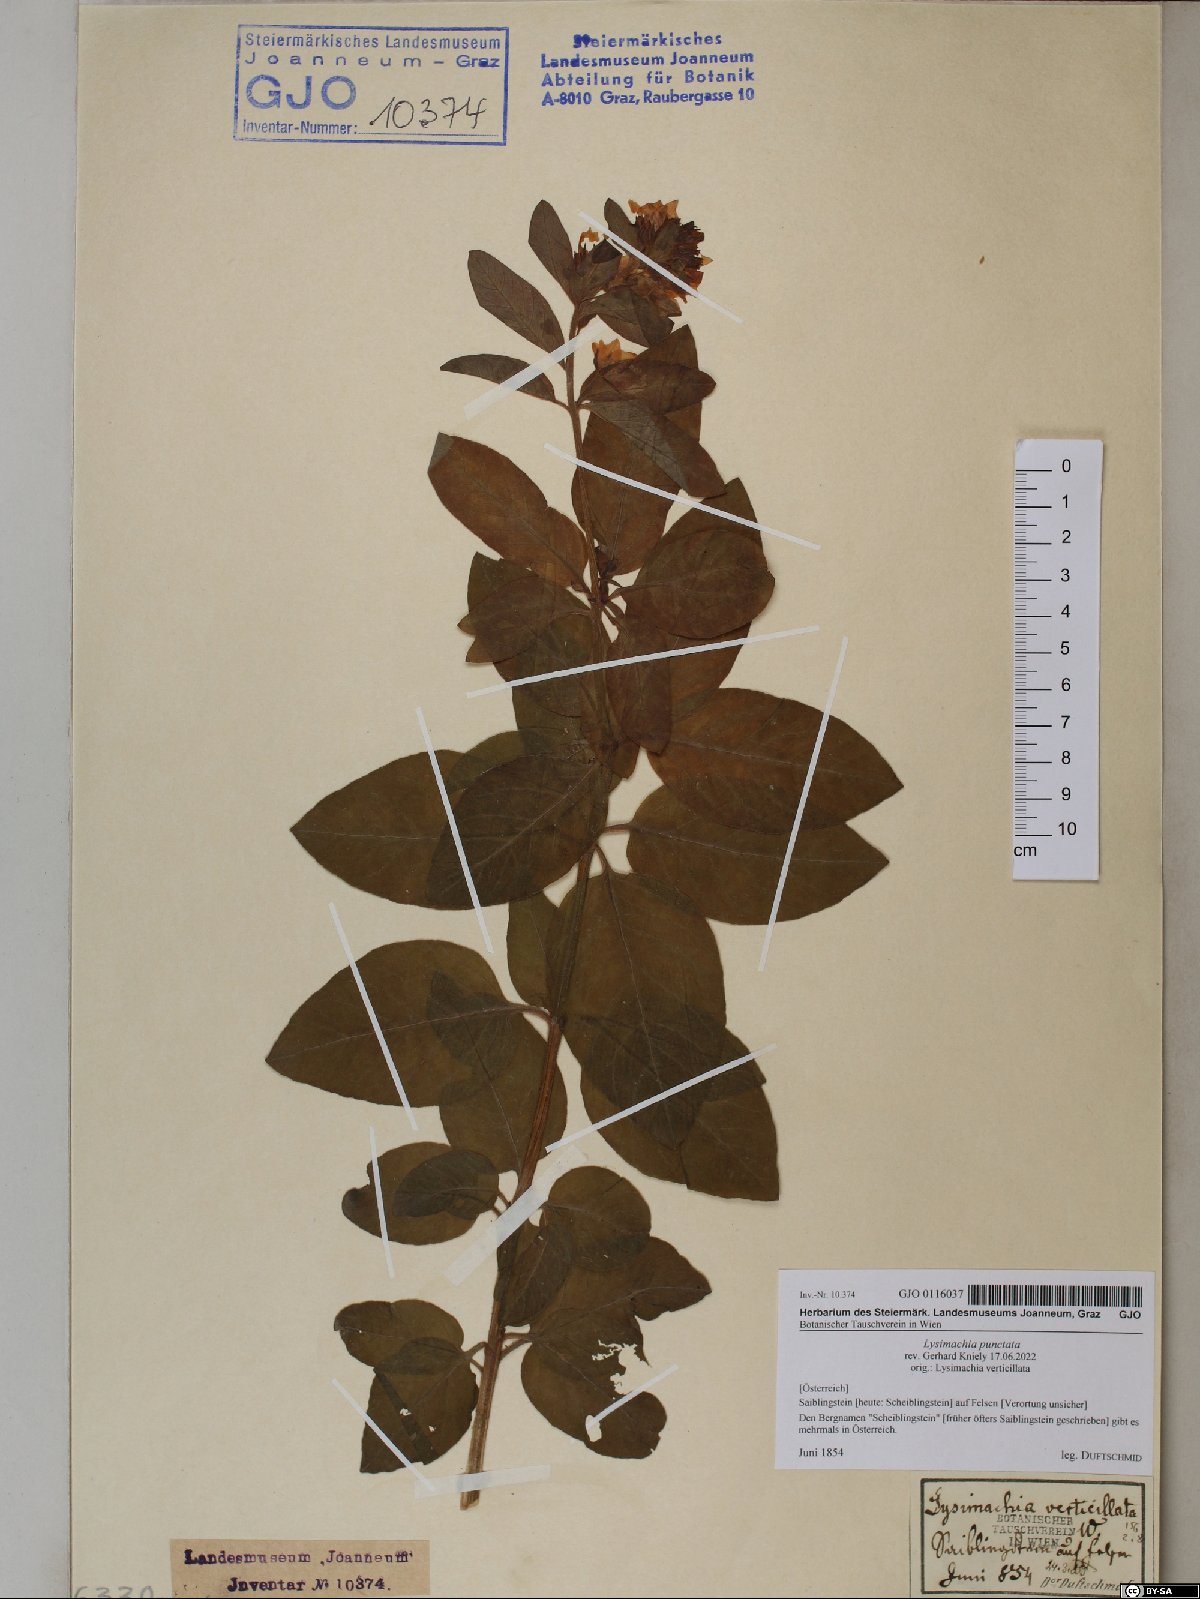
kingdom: Plantae
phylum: Tracheophyta
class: Magnoliopsida
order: Ericales
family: Primulaceae
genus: Lysimachia
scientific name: Lysimachia punctata
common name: Dotted loosestrife
